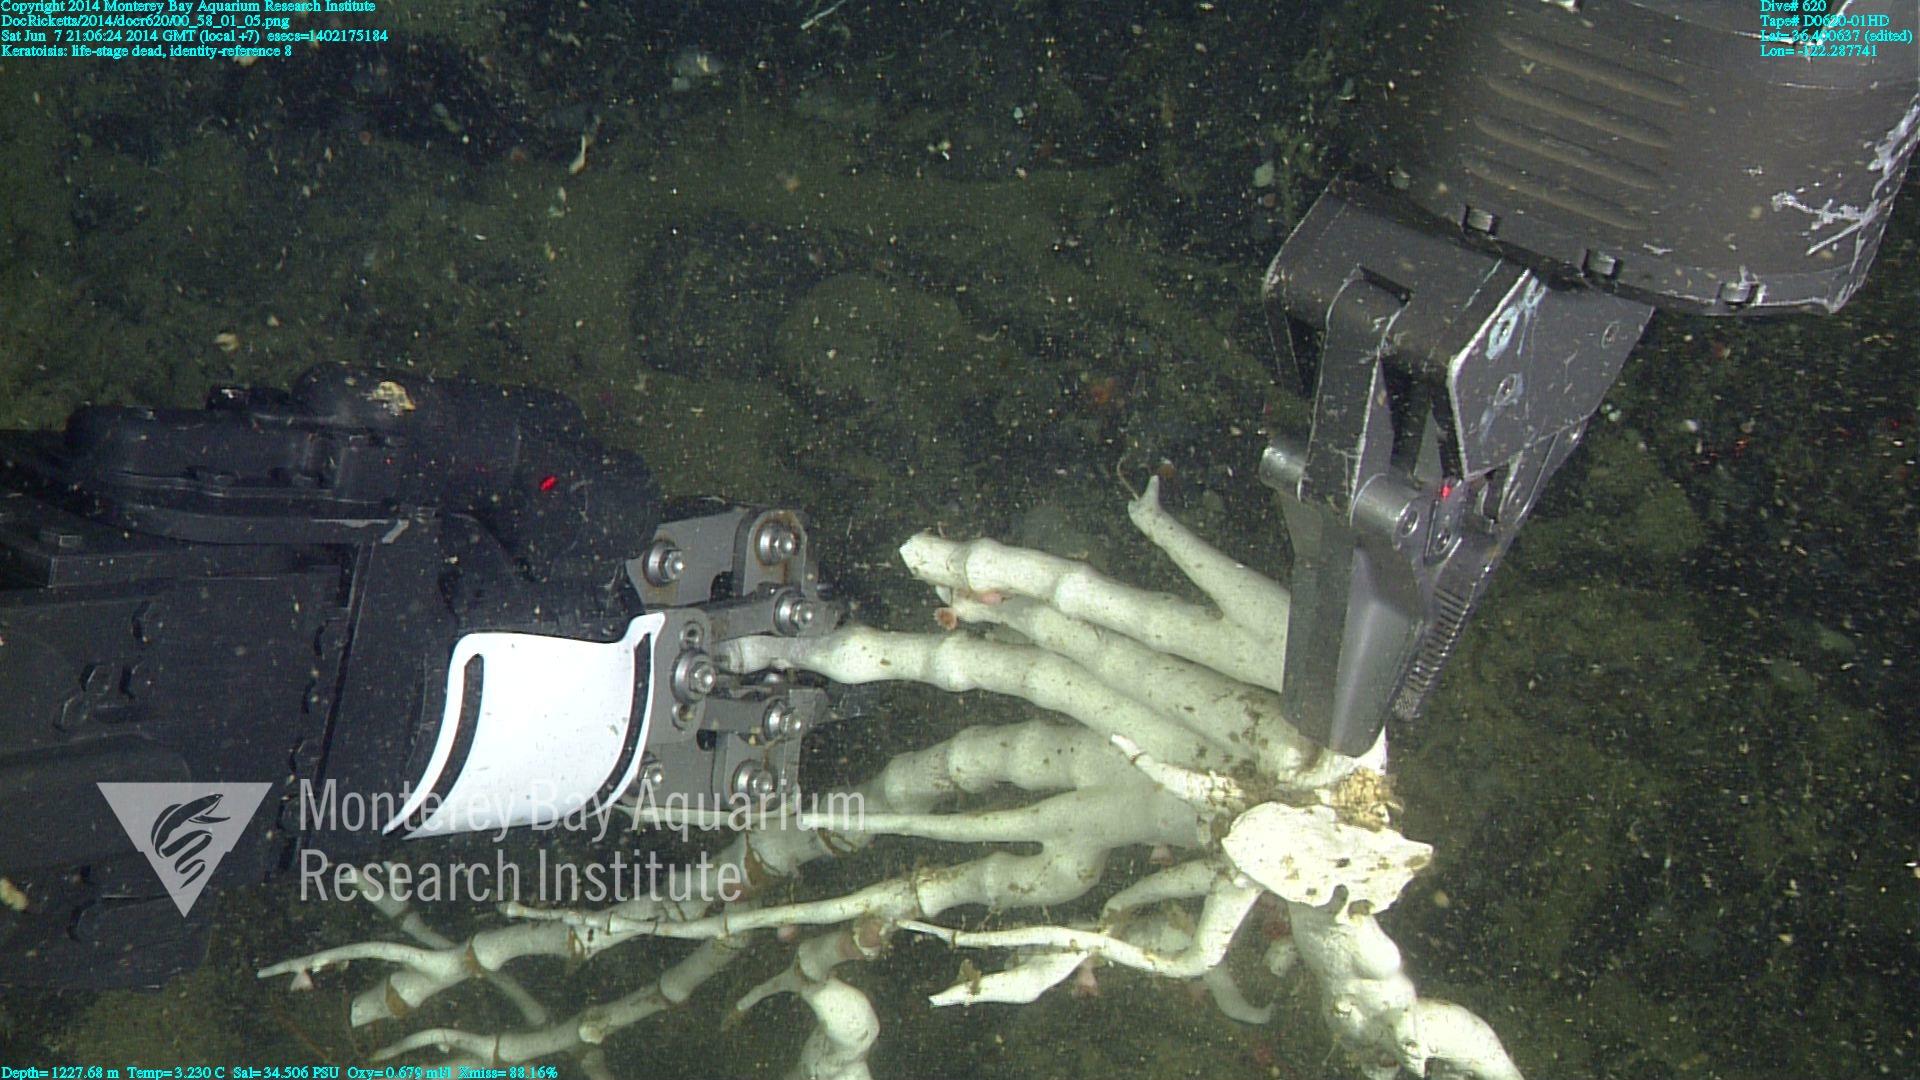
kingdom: Animalia
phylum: Cnidaria
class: Anthozoa
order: Scleralcyonacea
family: Keratoisididae
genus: Keratoisis
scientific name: Keratoisis
